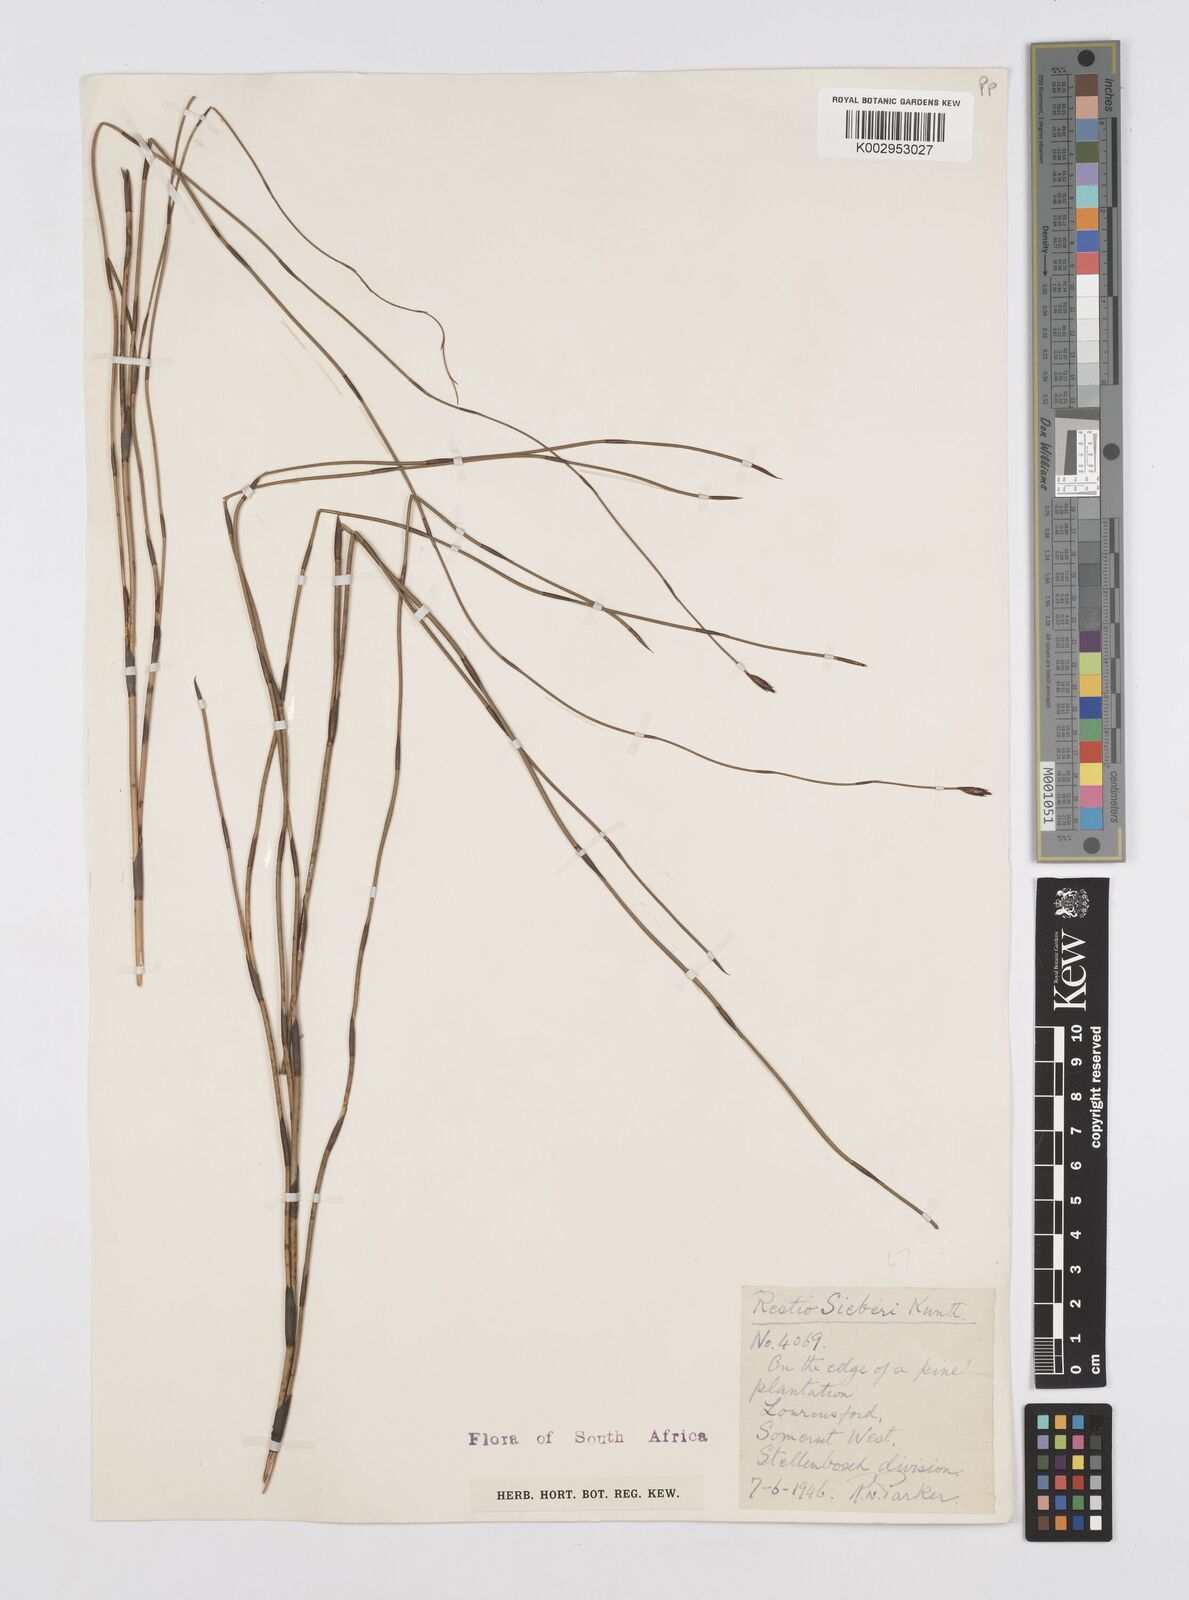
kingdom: Plantae
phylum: Tracheophyta
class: Liliopsida
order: Poales
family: Restionaceae
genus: Restio
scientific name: Restio sieberi
